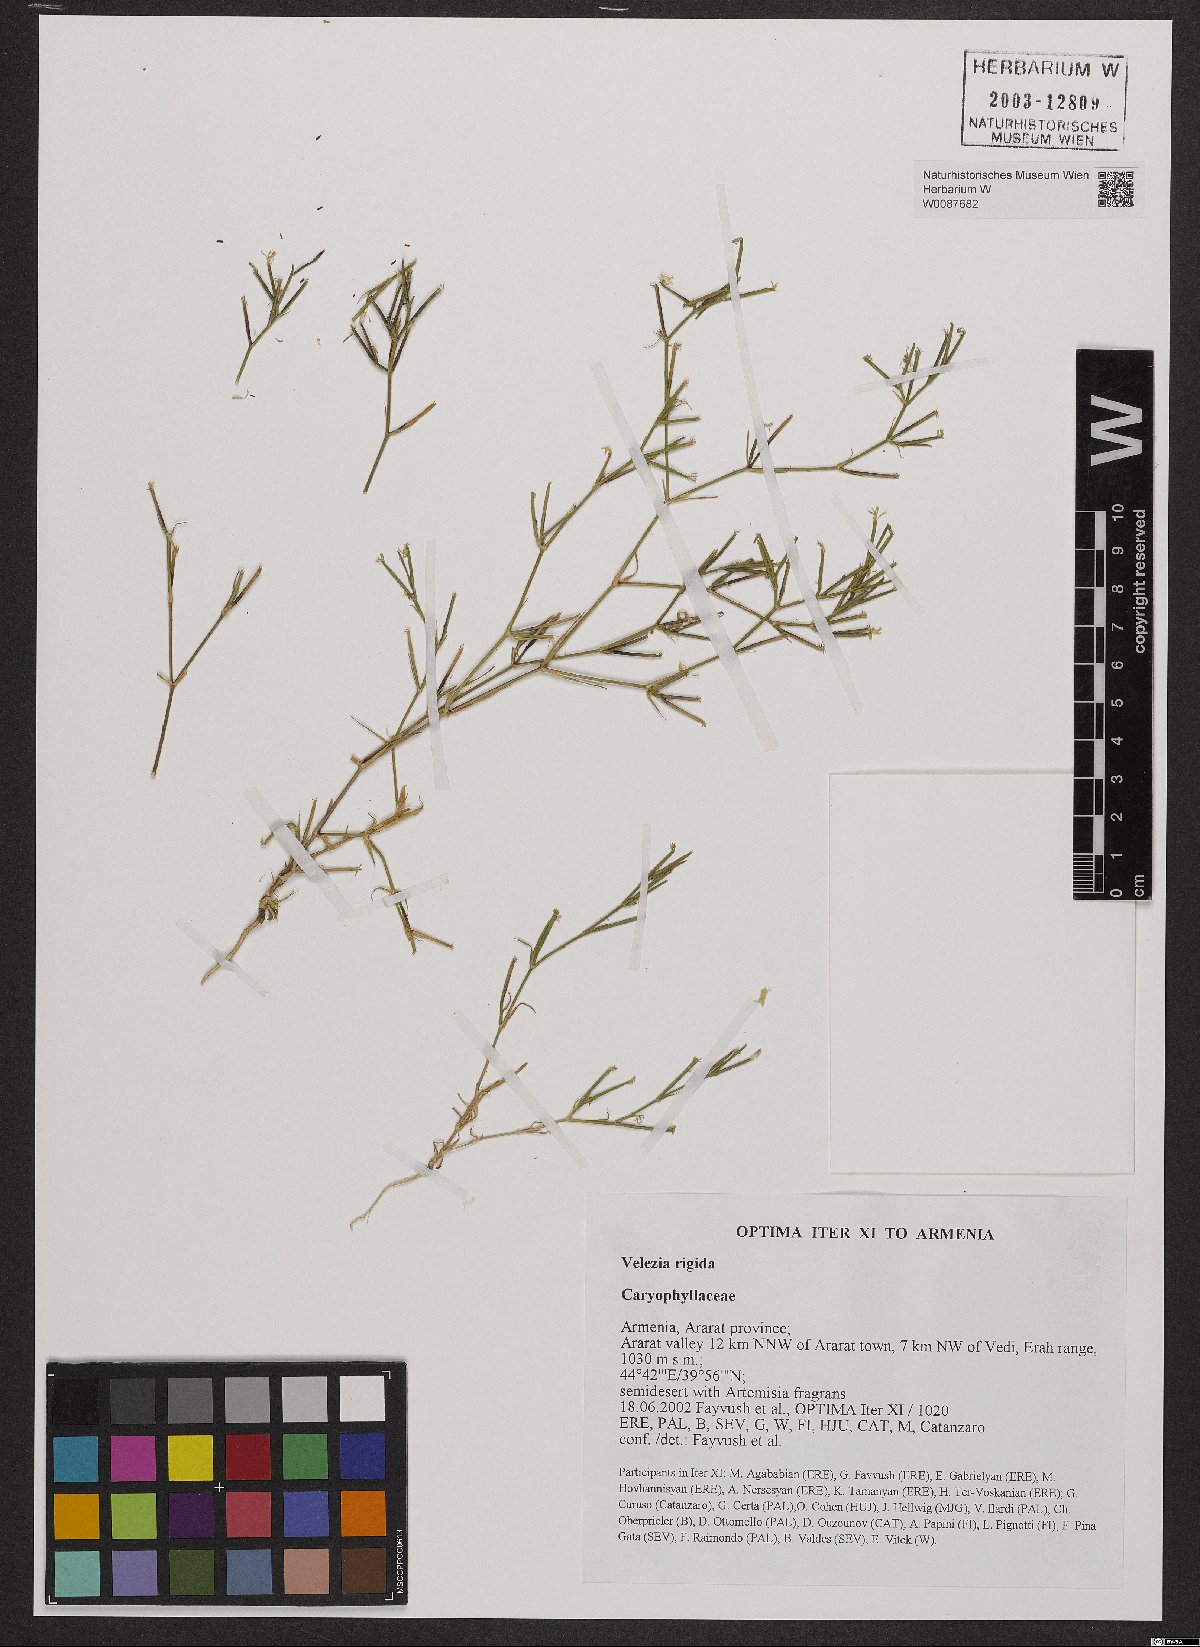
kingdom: Plantae
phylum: Tracheophyta
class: Magnoliopsida
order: Caryophyllales
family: Caryophyllaceae
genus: Dianthus
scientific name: Dianthus nudiflorus
